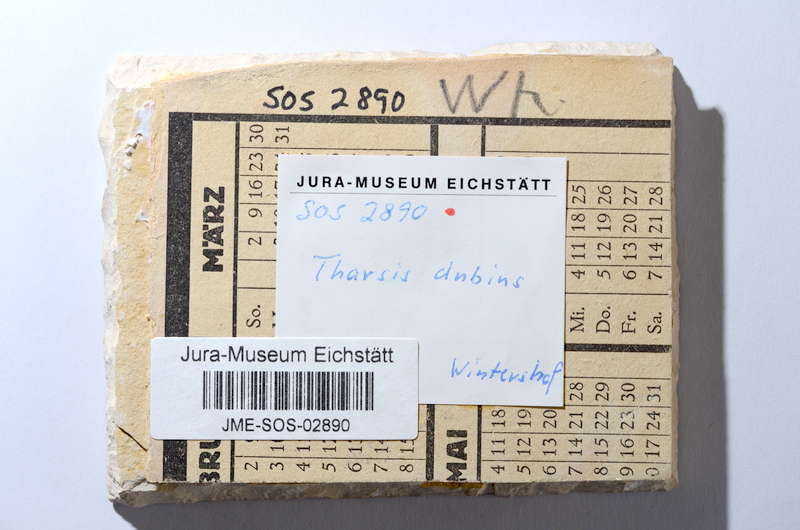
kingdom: Animalia
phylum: Chordata
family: Ascalaboidae
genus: Tharsis
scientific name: Tharsis dubius
